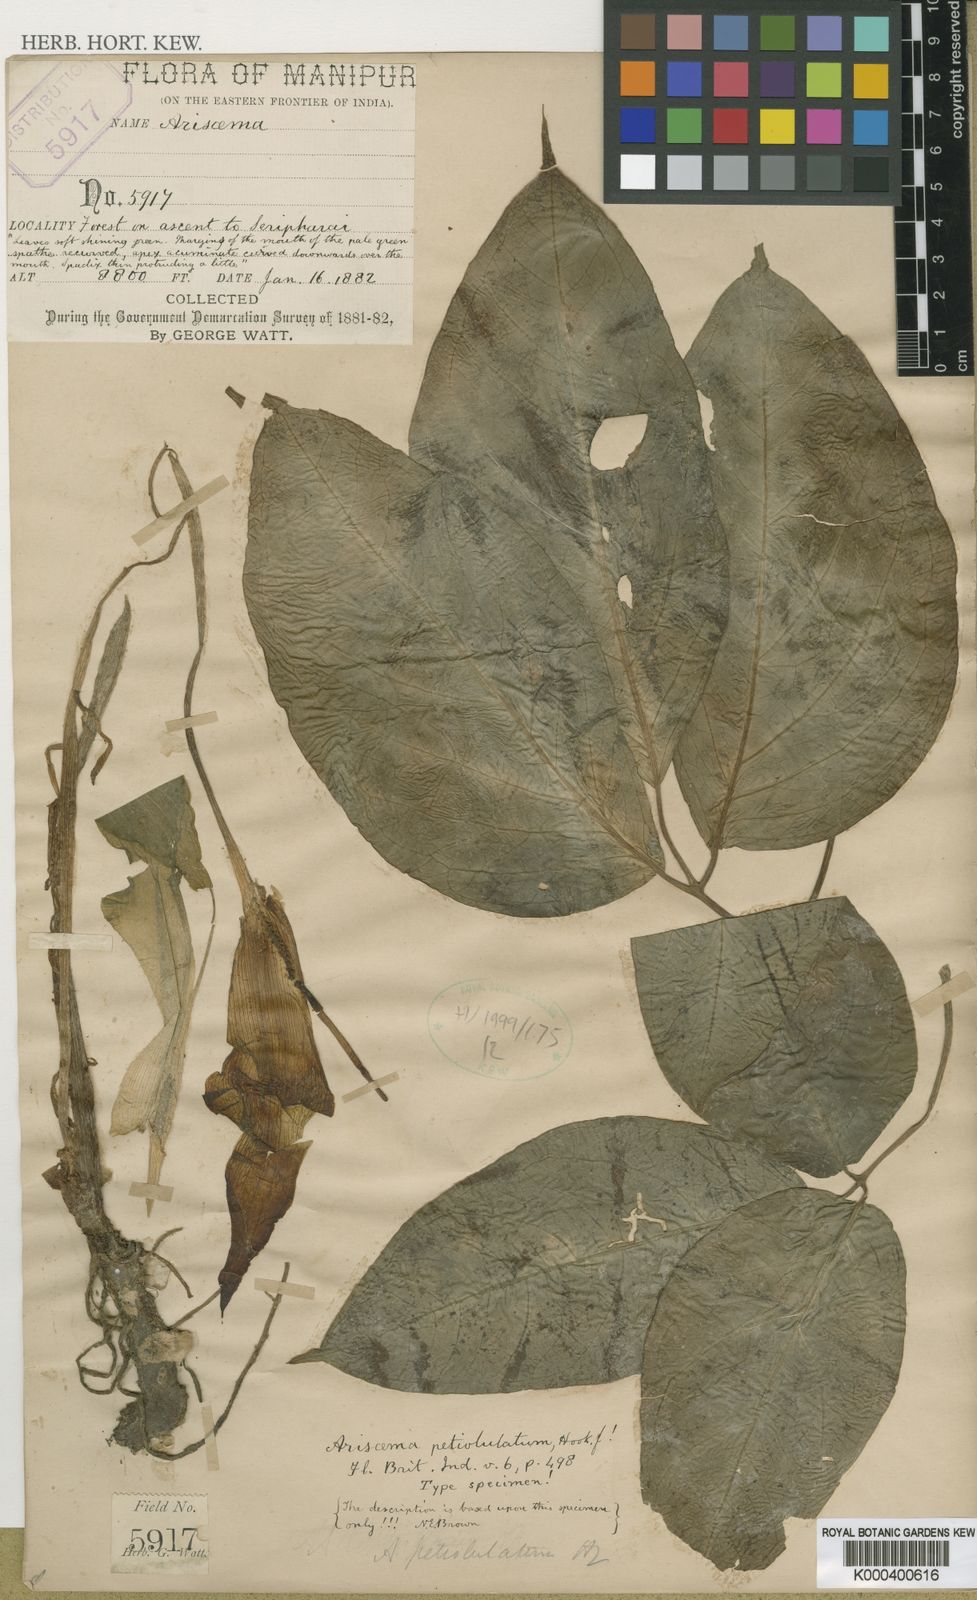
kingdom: Plantae
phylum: Tracheophyta
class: Liliopsida
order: Alismatales
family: Araceae
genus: Arisaema
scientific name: Arisaema petiolulatum
